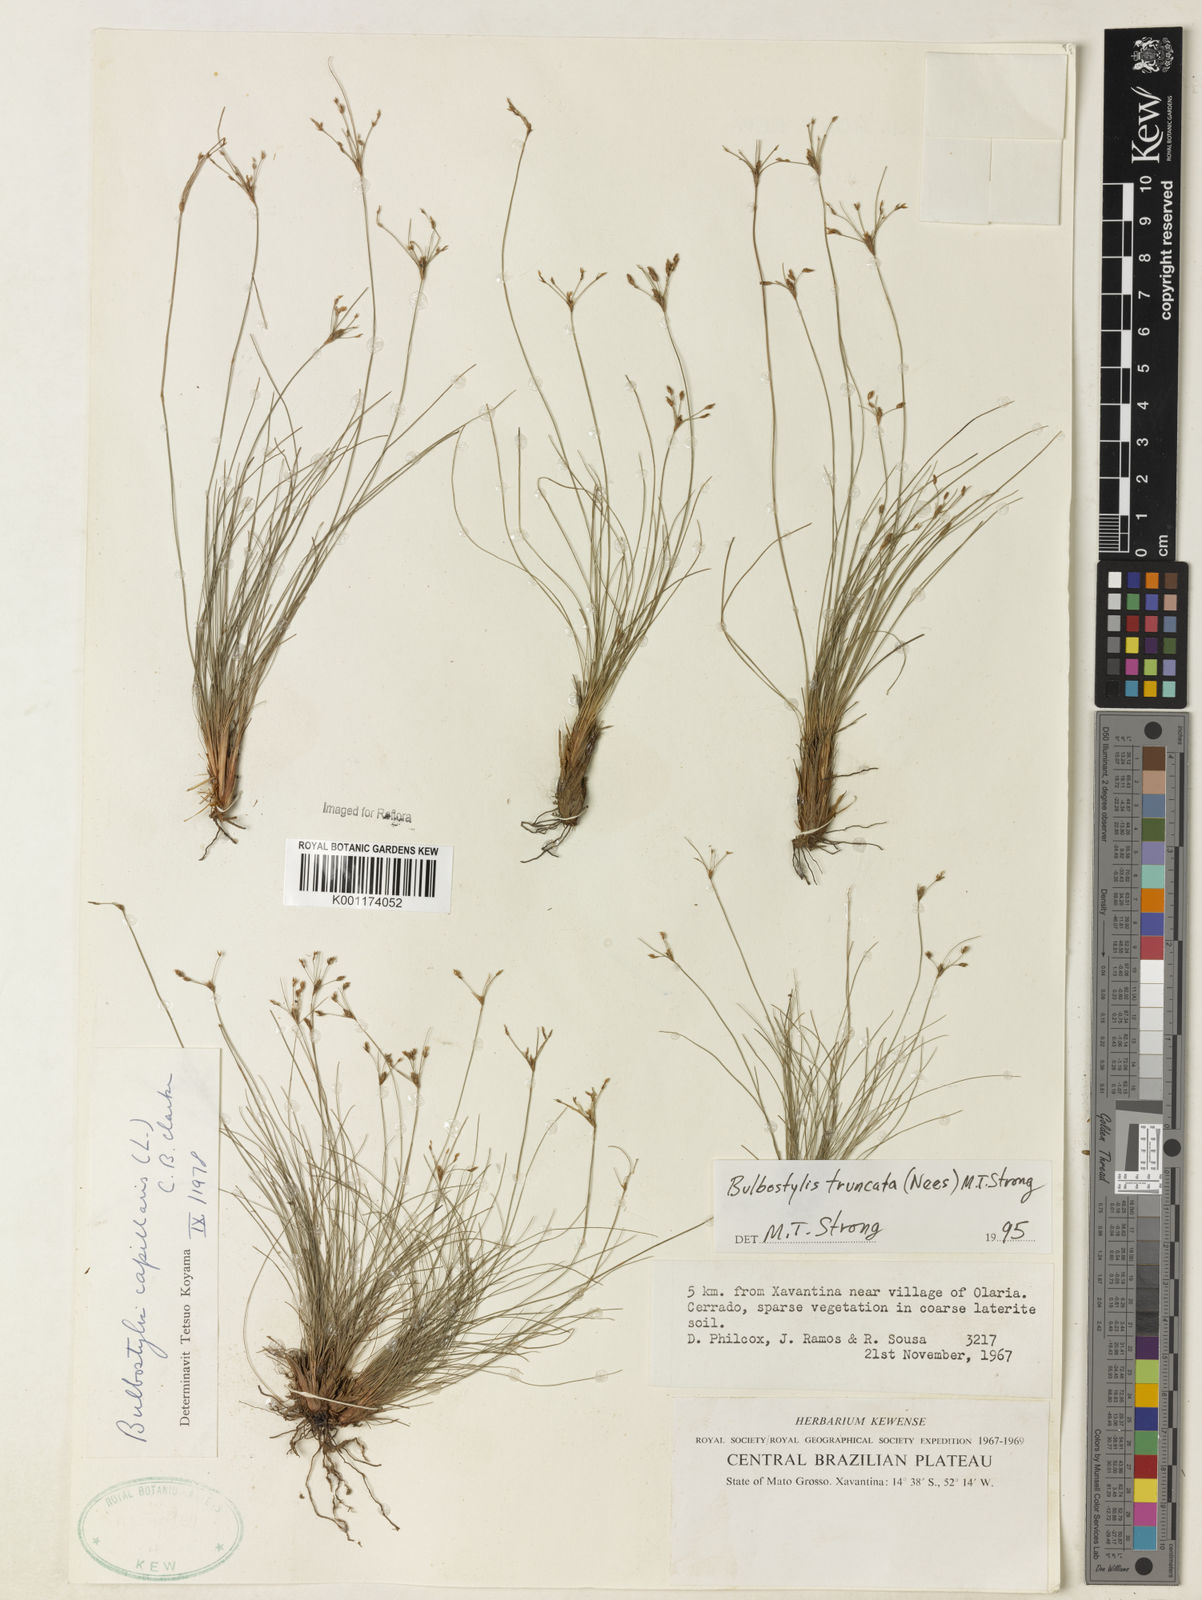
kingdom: Plantae
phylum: Tracheophyta
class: Liliopsida
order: Poales
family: Cyperaceae
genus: Bulbostylis
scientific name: Bulbostylis truncata
